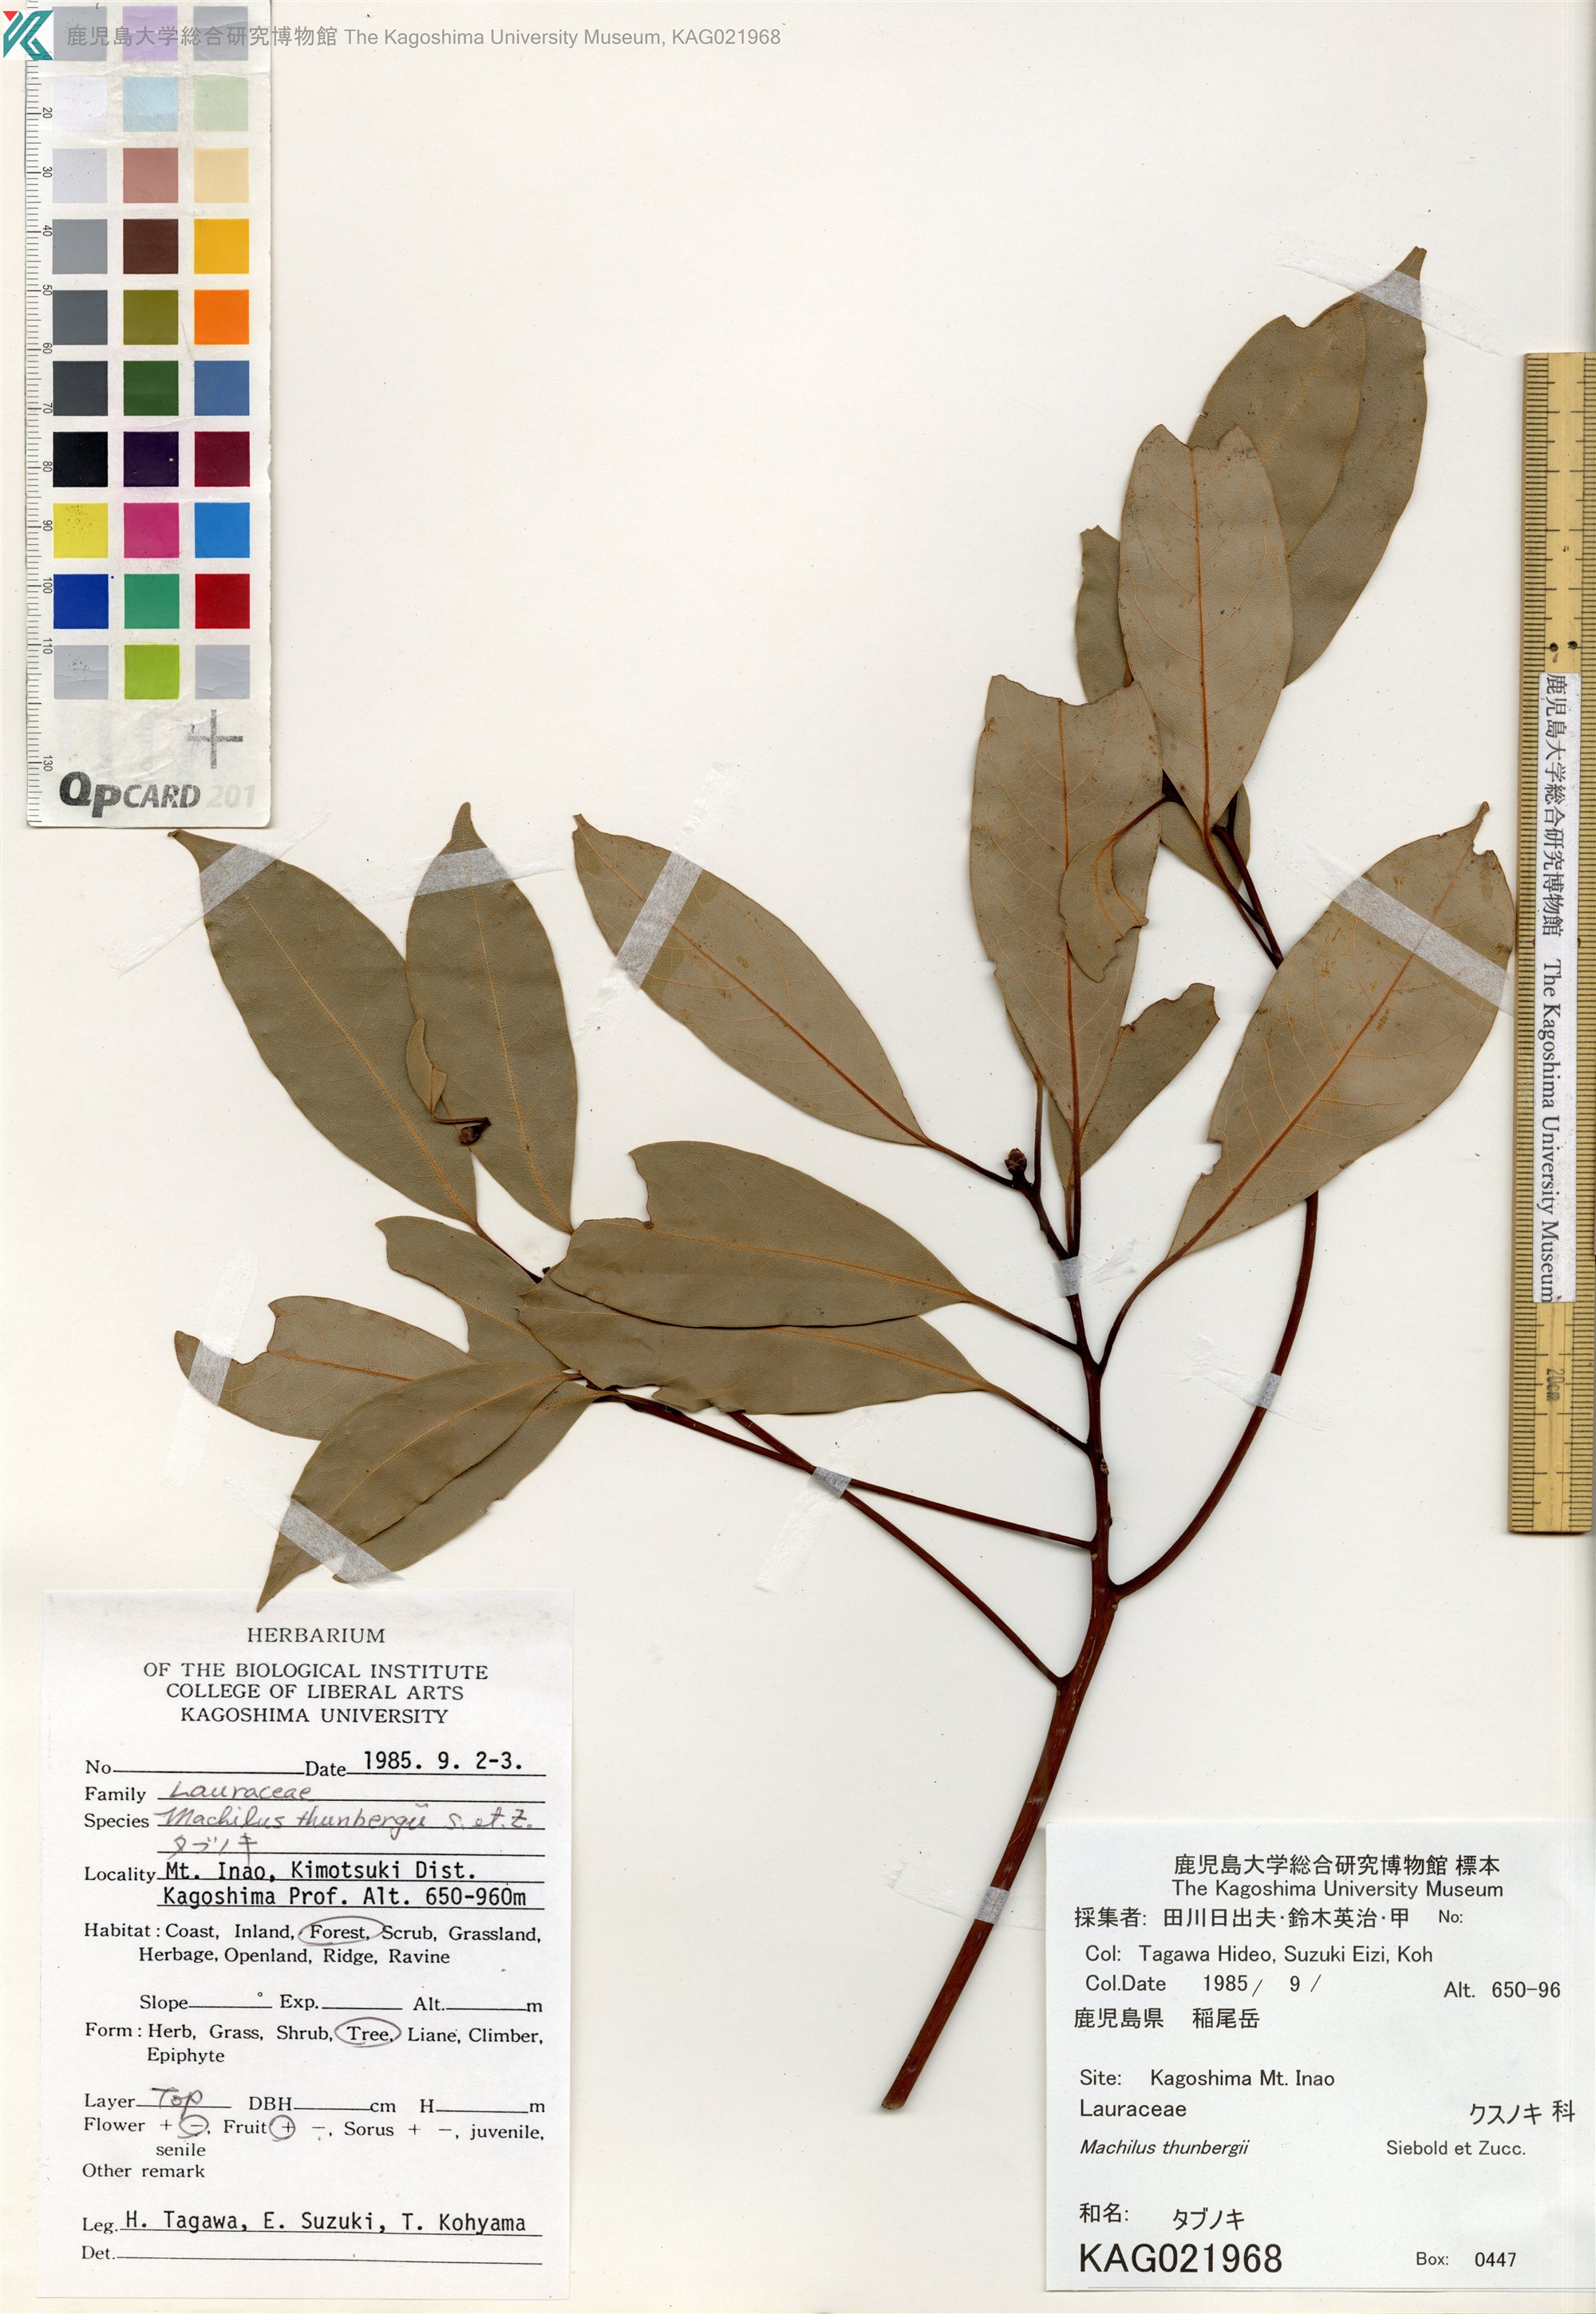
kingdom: Plantae
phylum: Tracheophyta
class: Magnoliopsida
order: Laurales
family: Lauraceae
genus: Machilus
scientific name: Machilus thunbergii
